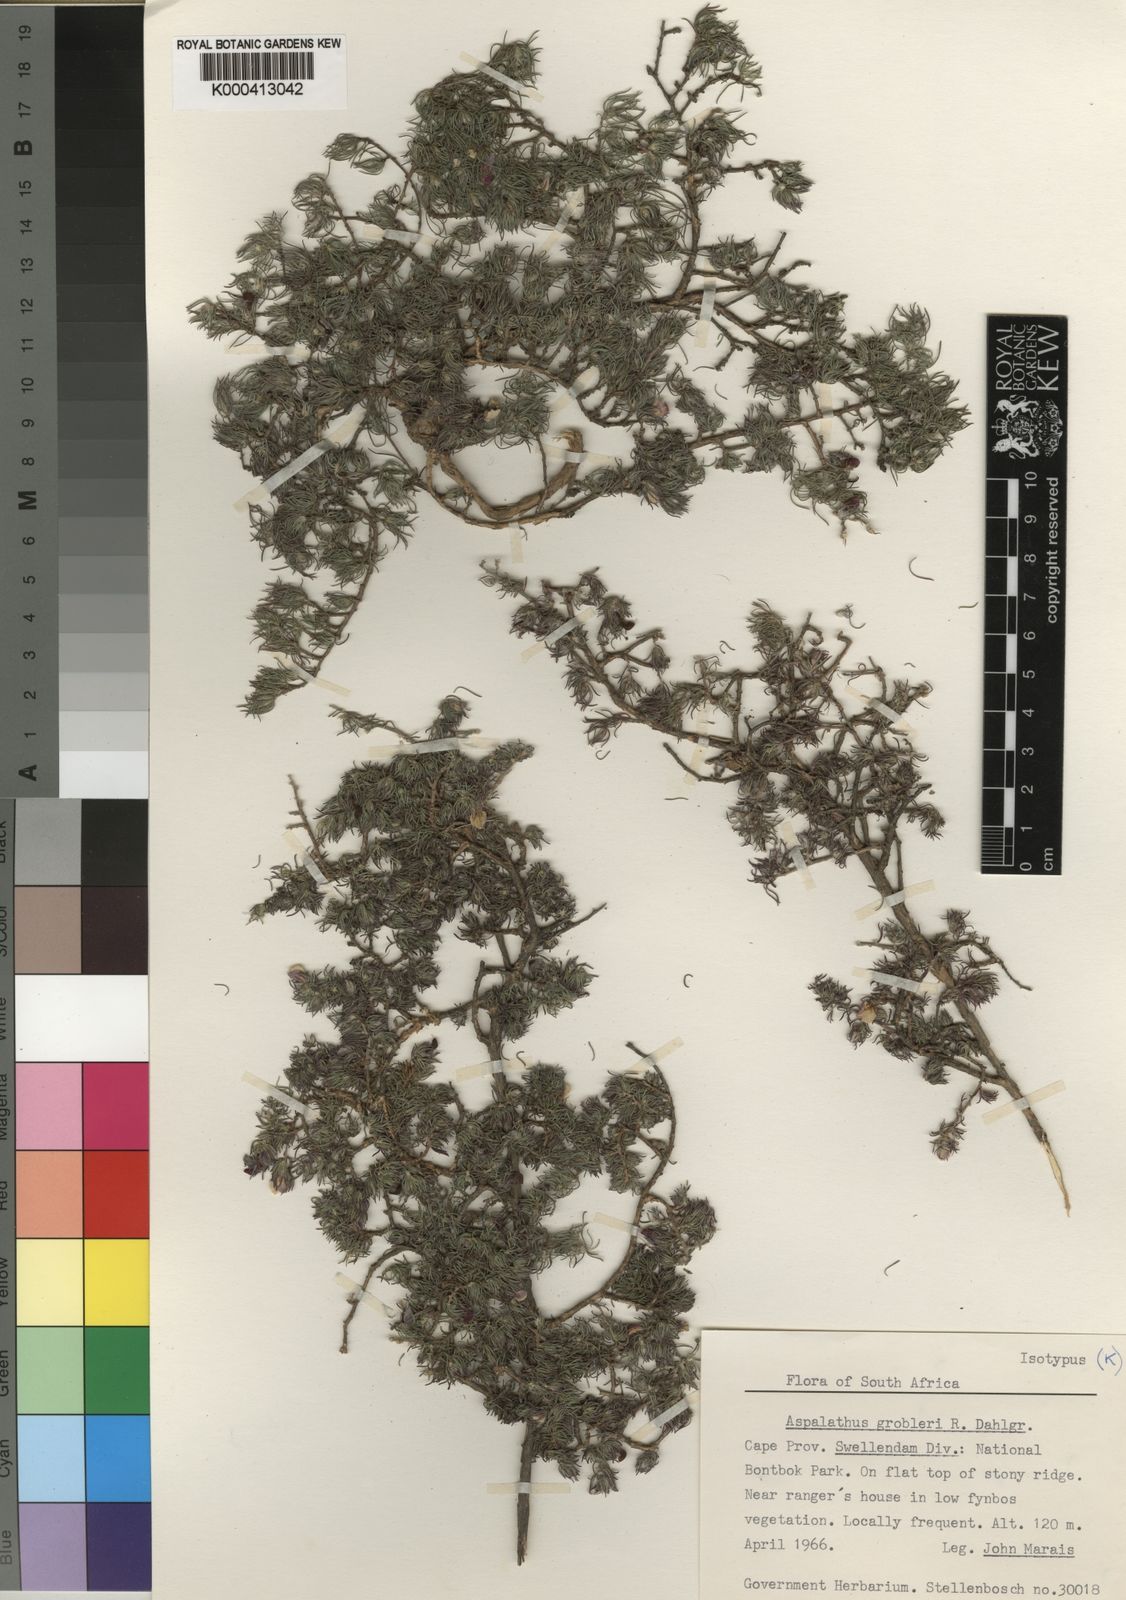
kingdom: Plantae
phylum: Tracheophyta
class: Magnoliopsida
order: Fabales
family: Fabaceae
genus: Aspalathus
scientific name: Aspalathus grobleri
